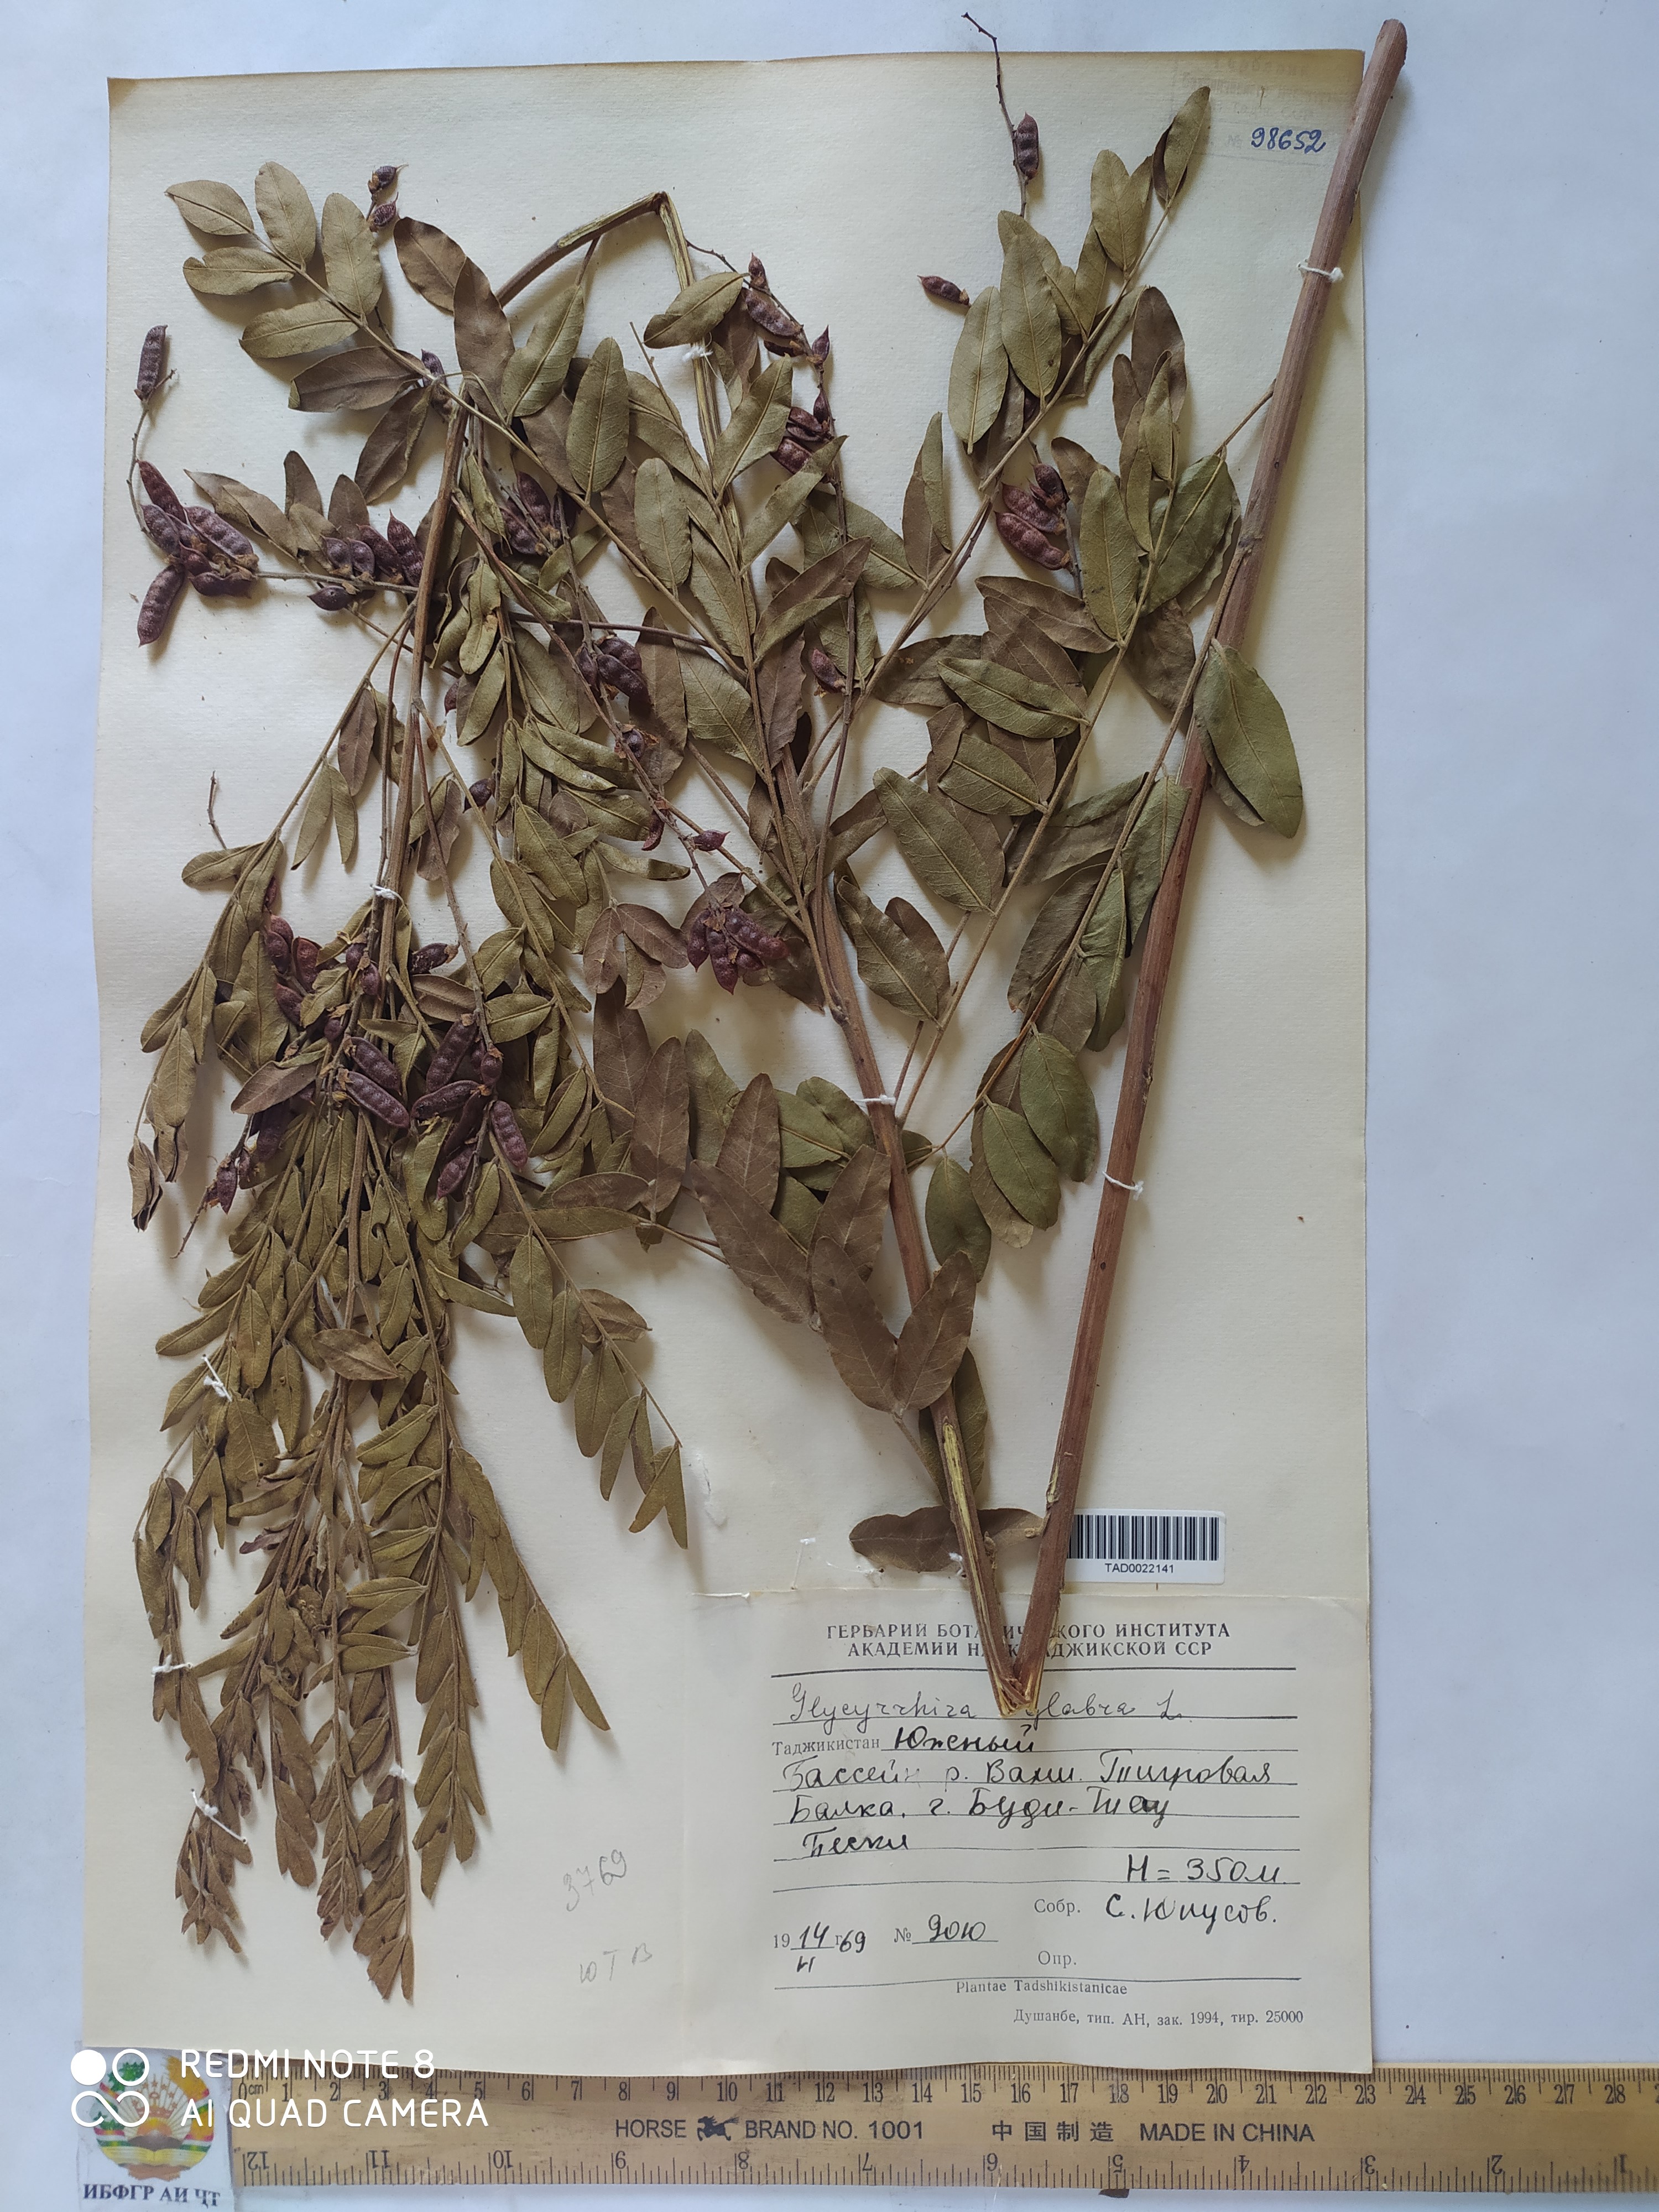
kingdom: Plantae
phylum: Tracheophyta
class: Magnoliopsida
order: Fabales
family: Fabaceae
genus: Glycyrrhiza
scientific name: Glycyrrhiza glabra
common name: Liquorice
